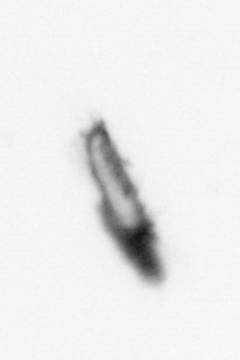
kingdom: Animalia
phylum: Annelida
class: Polychaeta
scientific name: Polychaeta
